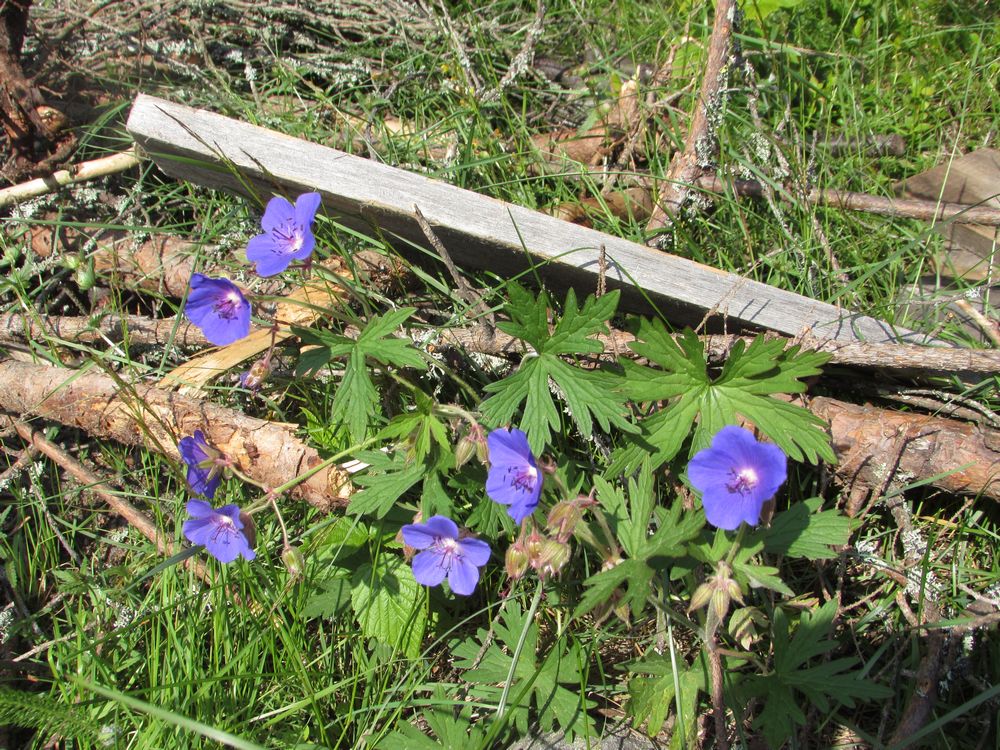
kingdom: Plantae
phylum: Tracheophyta
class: Magnoliopsida
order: Geraniales
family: Geraniaceae
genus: Geranium
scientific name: Geranium pratense
